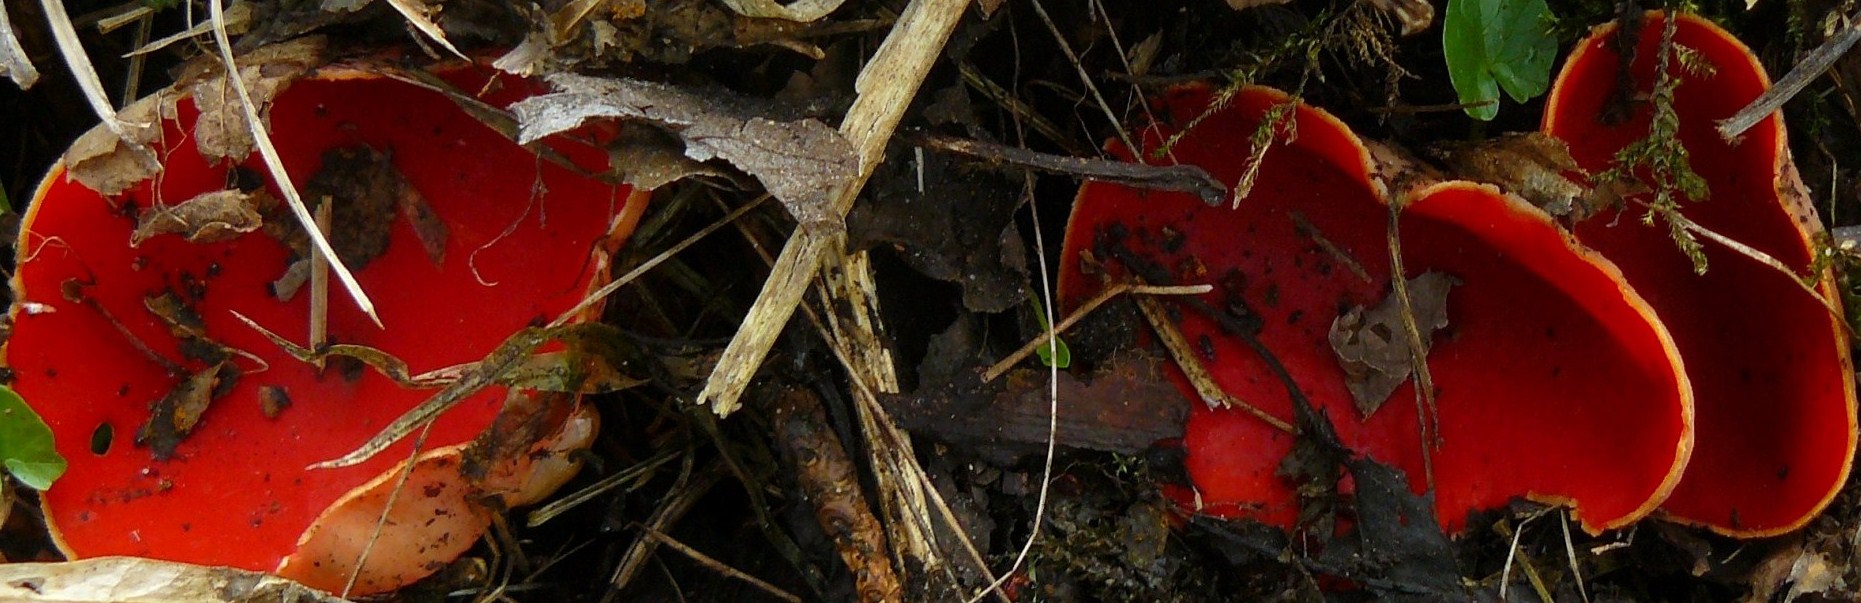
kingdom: Fungi
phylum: Ascomycota
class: Pezizomycetes
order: Pezizales
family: Sarcoscyphaceae
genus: Sarcoscypha
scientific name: Sarcoscypha austriaca
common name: krølhåret pragtbæger
